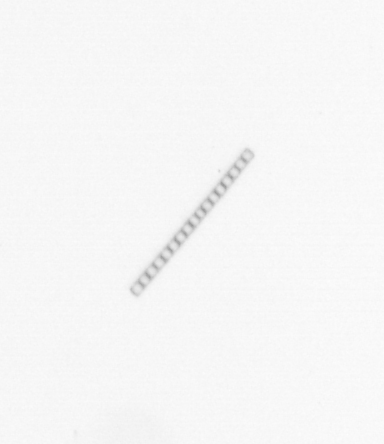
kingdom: Chromista
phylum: Ochrophyta
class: Bacillariophyceae
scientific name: Bacillariophyceae
